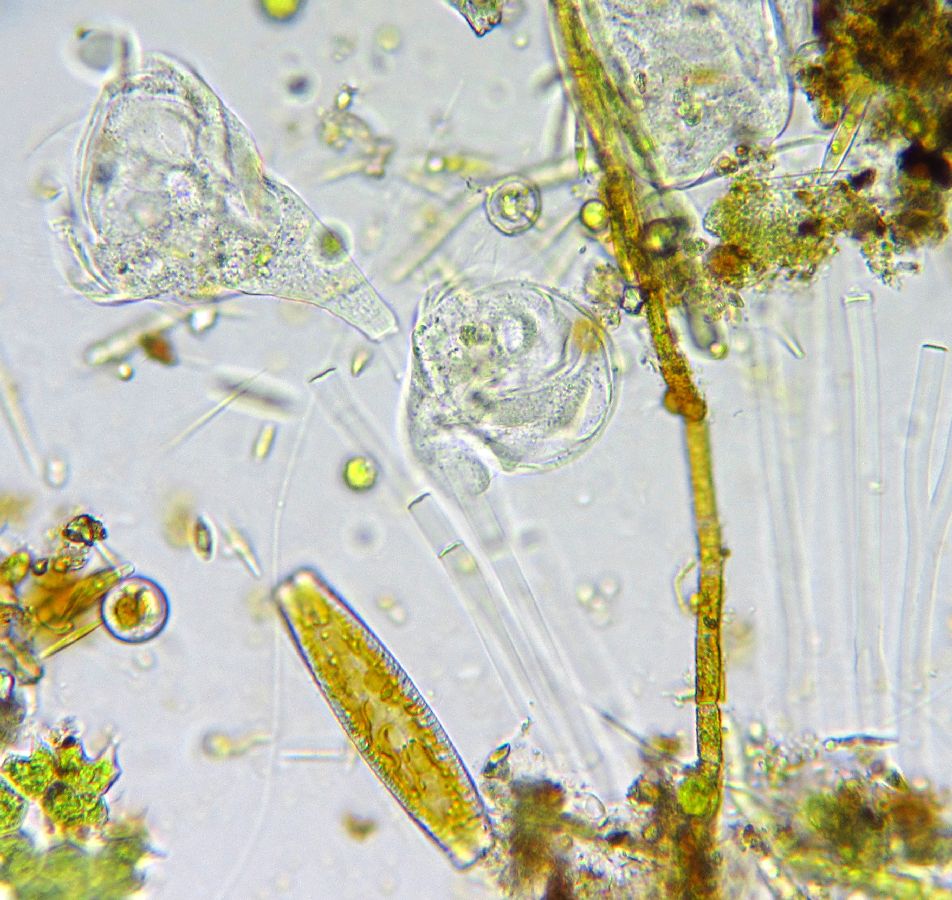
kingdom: Chromista
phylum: Ciliophora
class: Oligohymenophorea
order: Peritrichida
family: Epistylididae
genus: Epistylis
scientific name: Epistylis plicatilis
